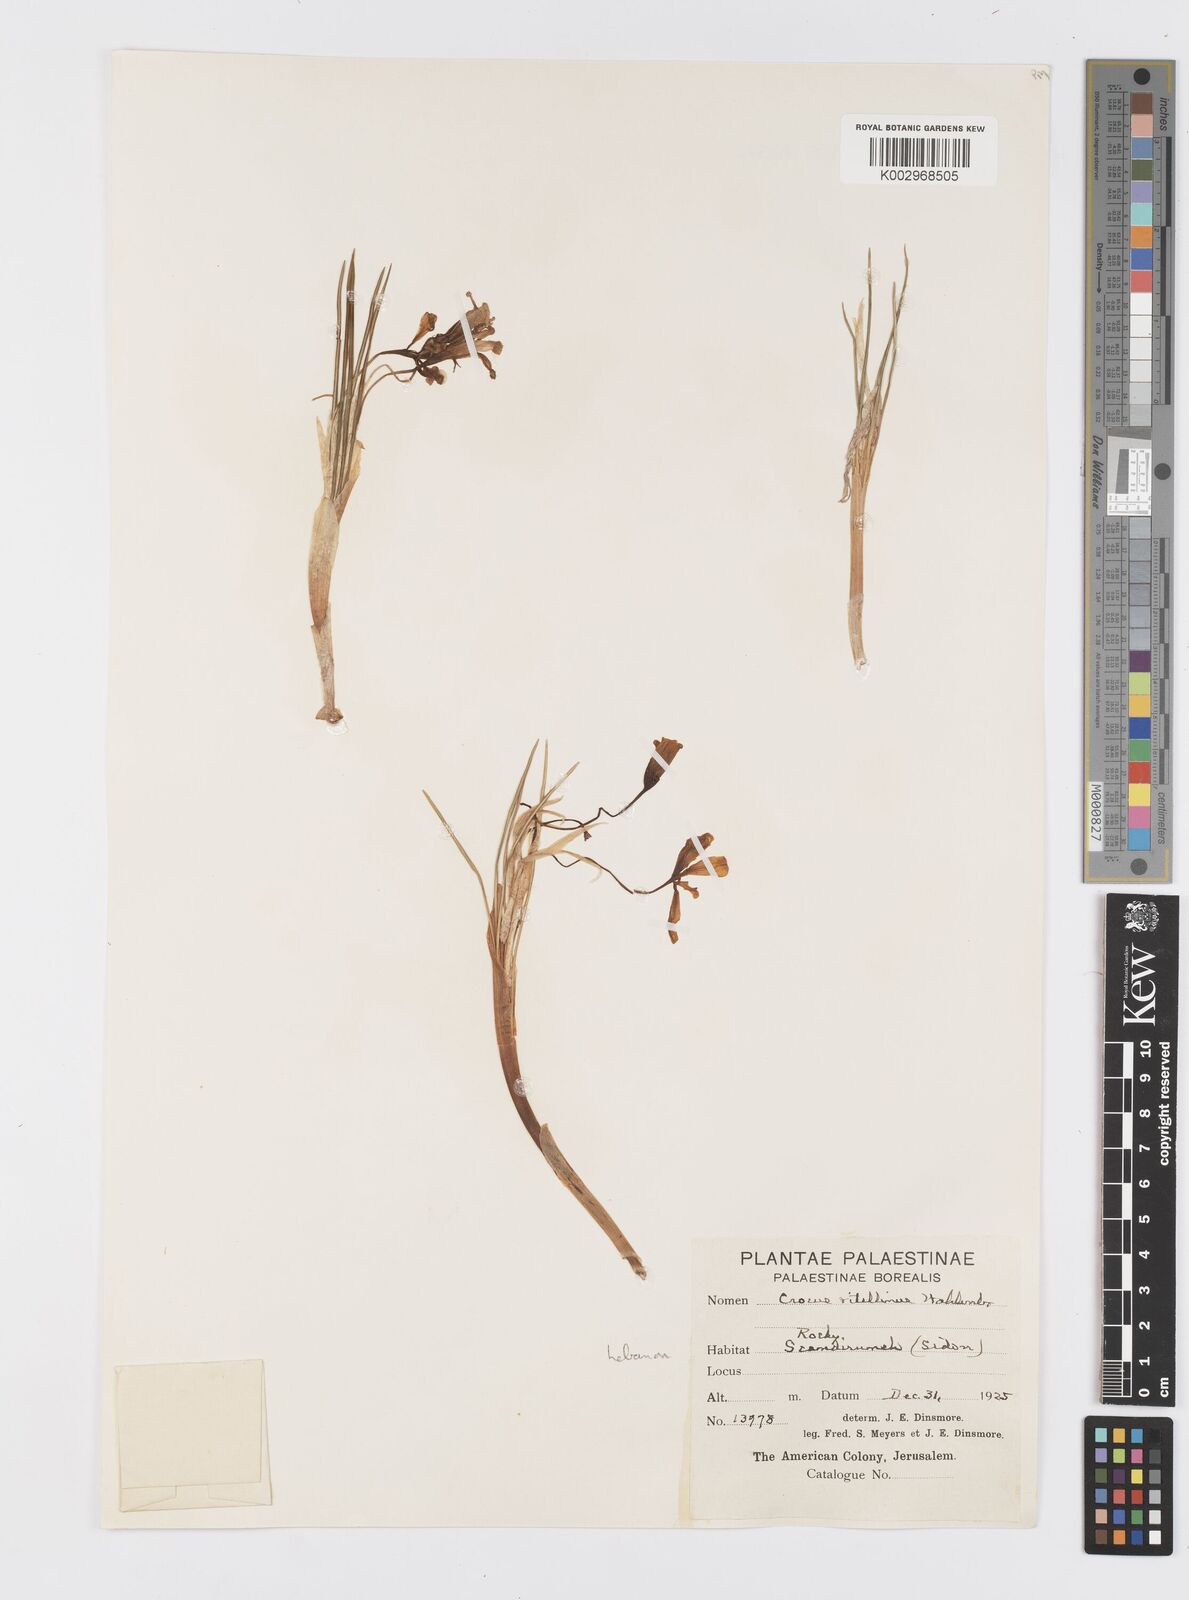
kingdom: Plantae
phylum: Tracheophyta
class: Liliopsida
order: Asparagales
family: Iridaceae
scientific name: Iridaceae
